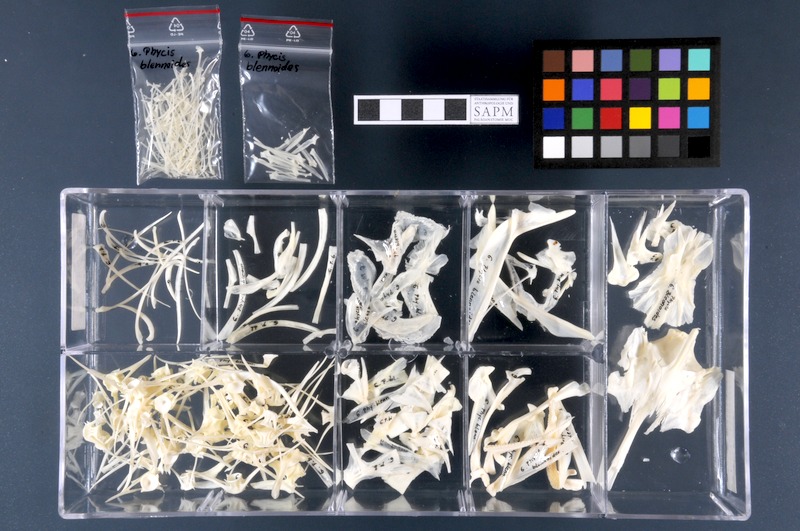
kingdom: Animalia
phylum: Chordata
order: Gadiformes
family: Phycidae
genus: Phycis
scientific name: Phycis blennoides
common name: Forked hake
